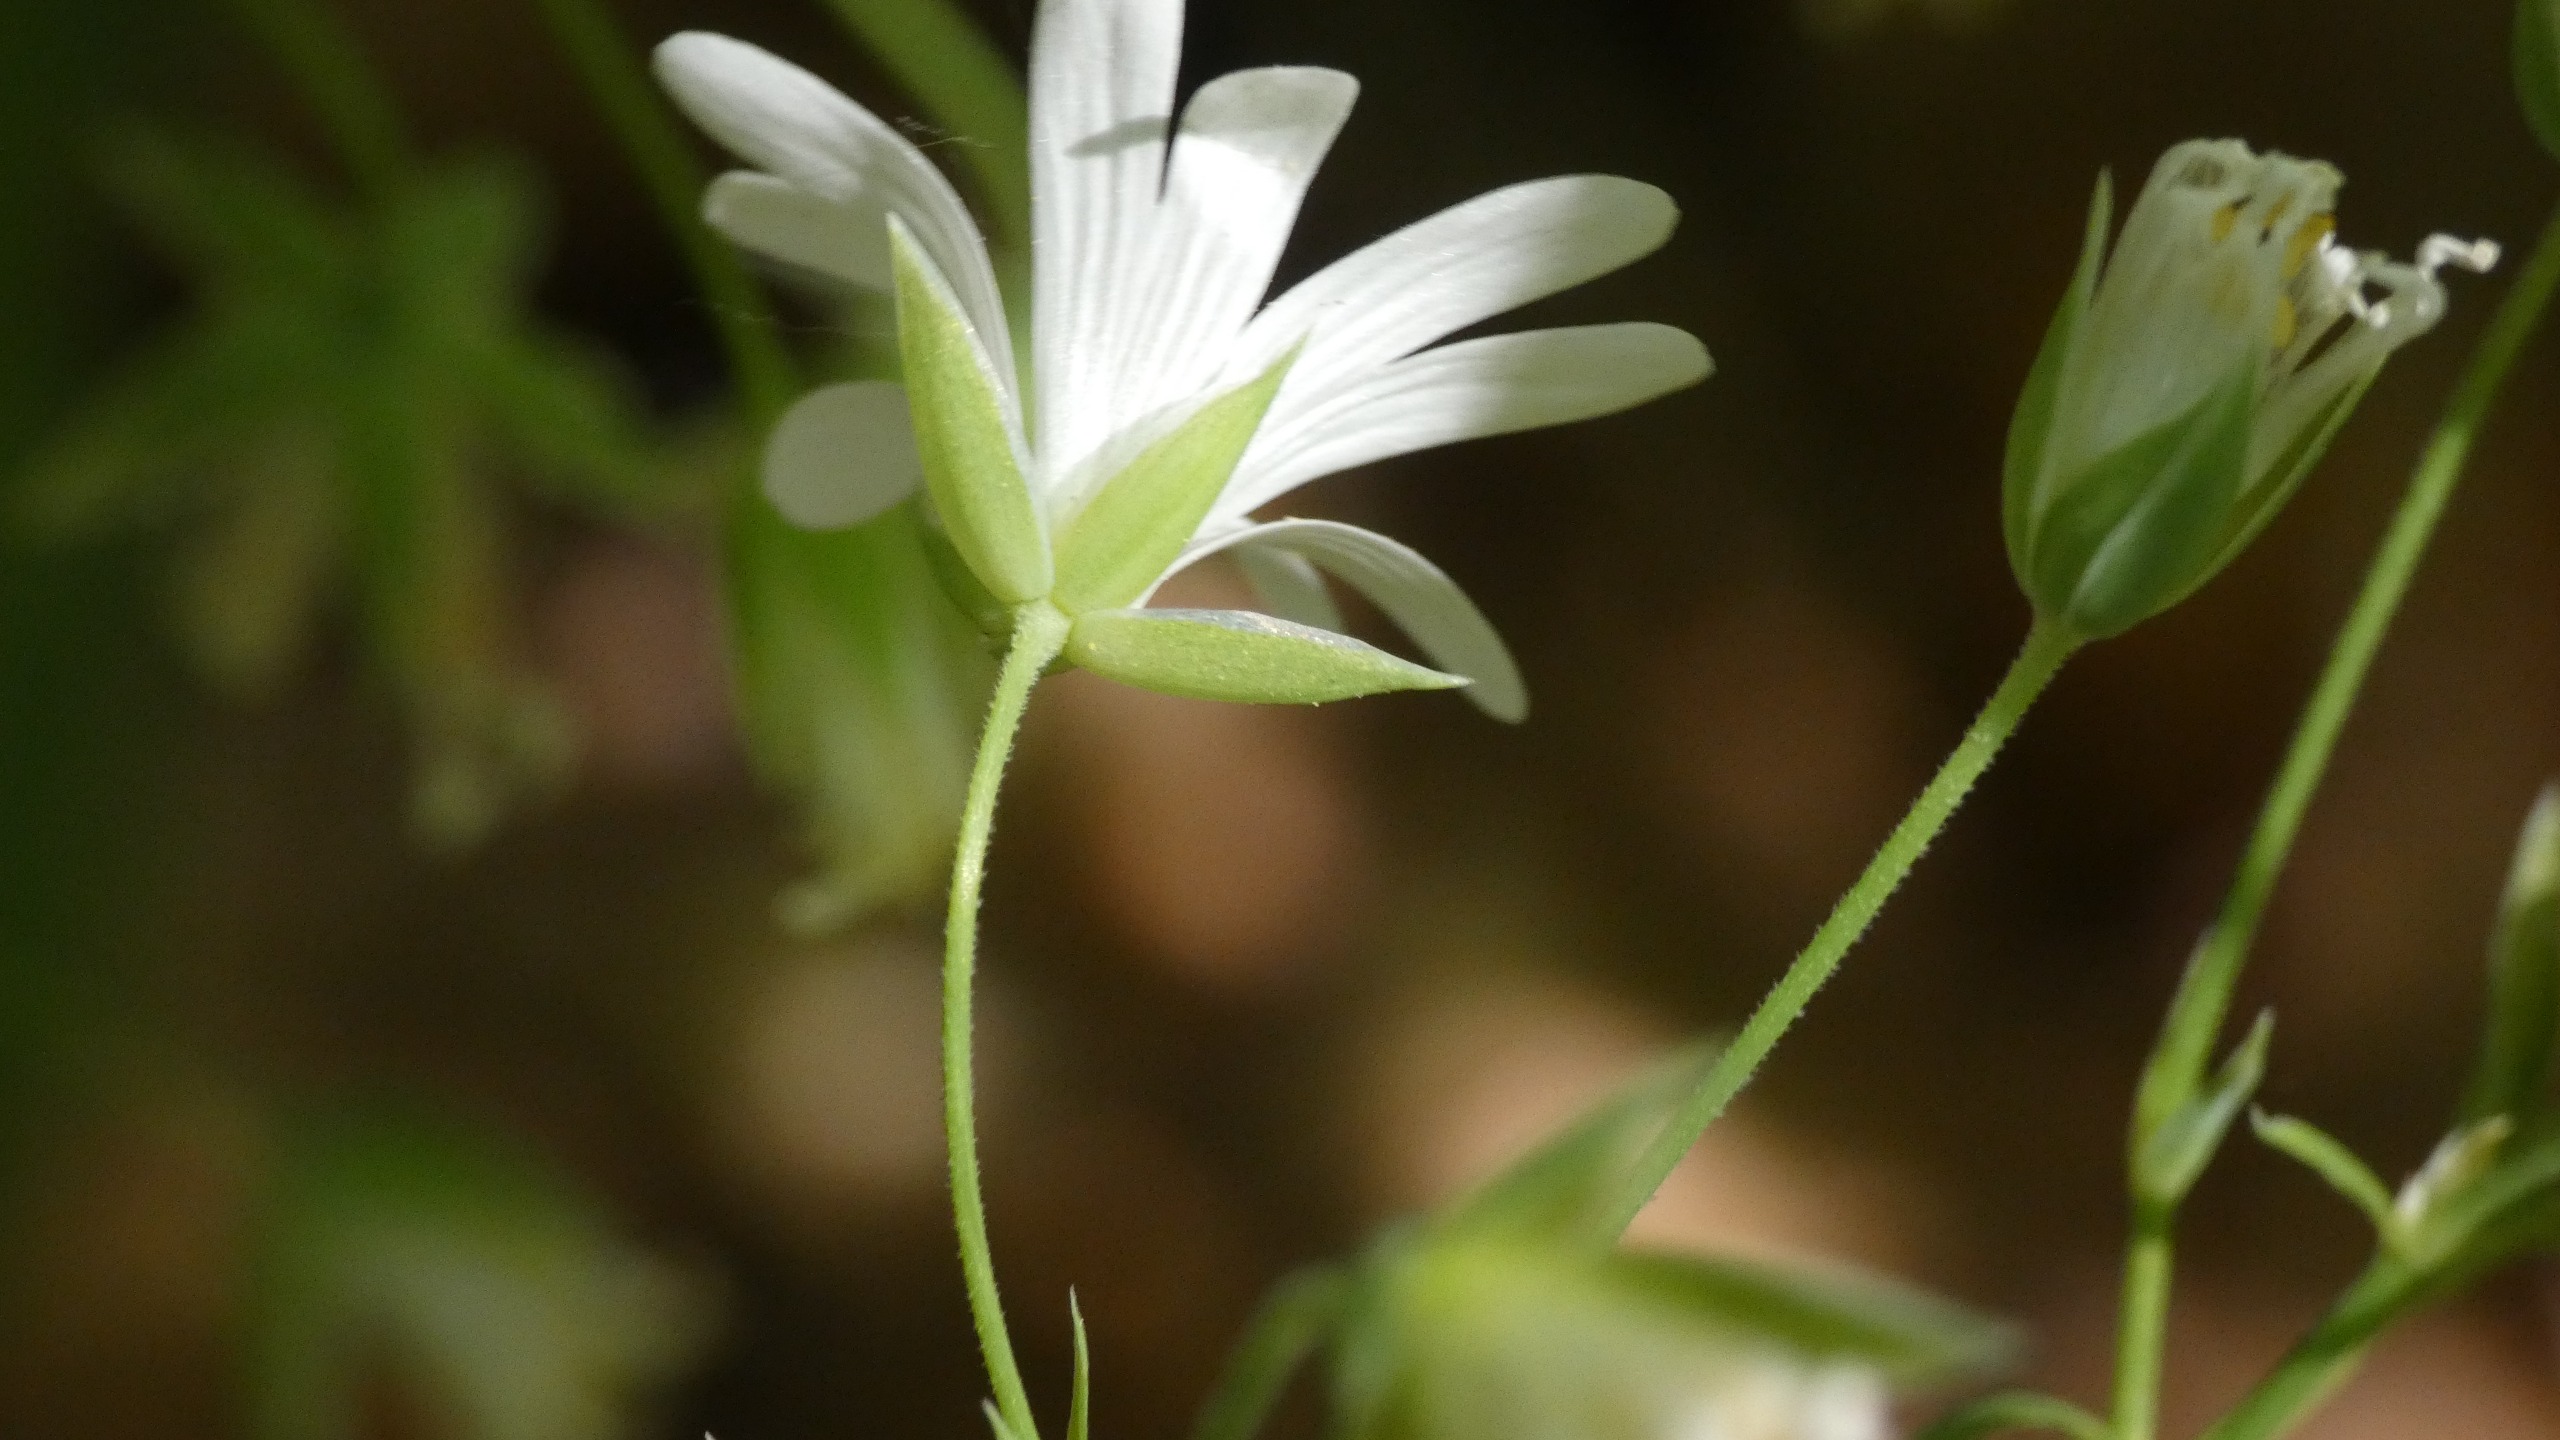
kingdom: Plantae
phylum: Tracheophyta
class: Magnoliopsida
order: Caryophyllales
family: Caryophyllaceae
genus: Rabelera
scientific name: Rabelera holostea
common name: Stor fladstjerne
